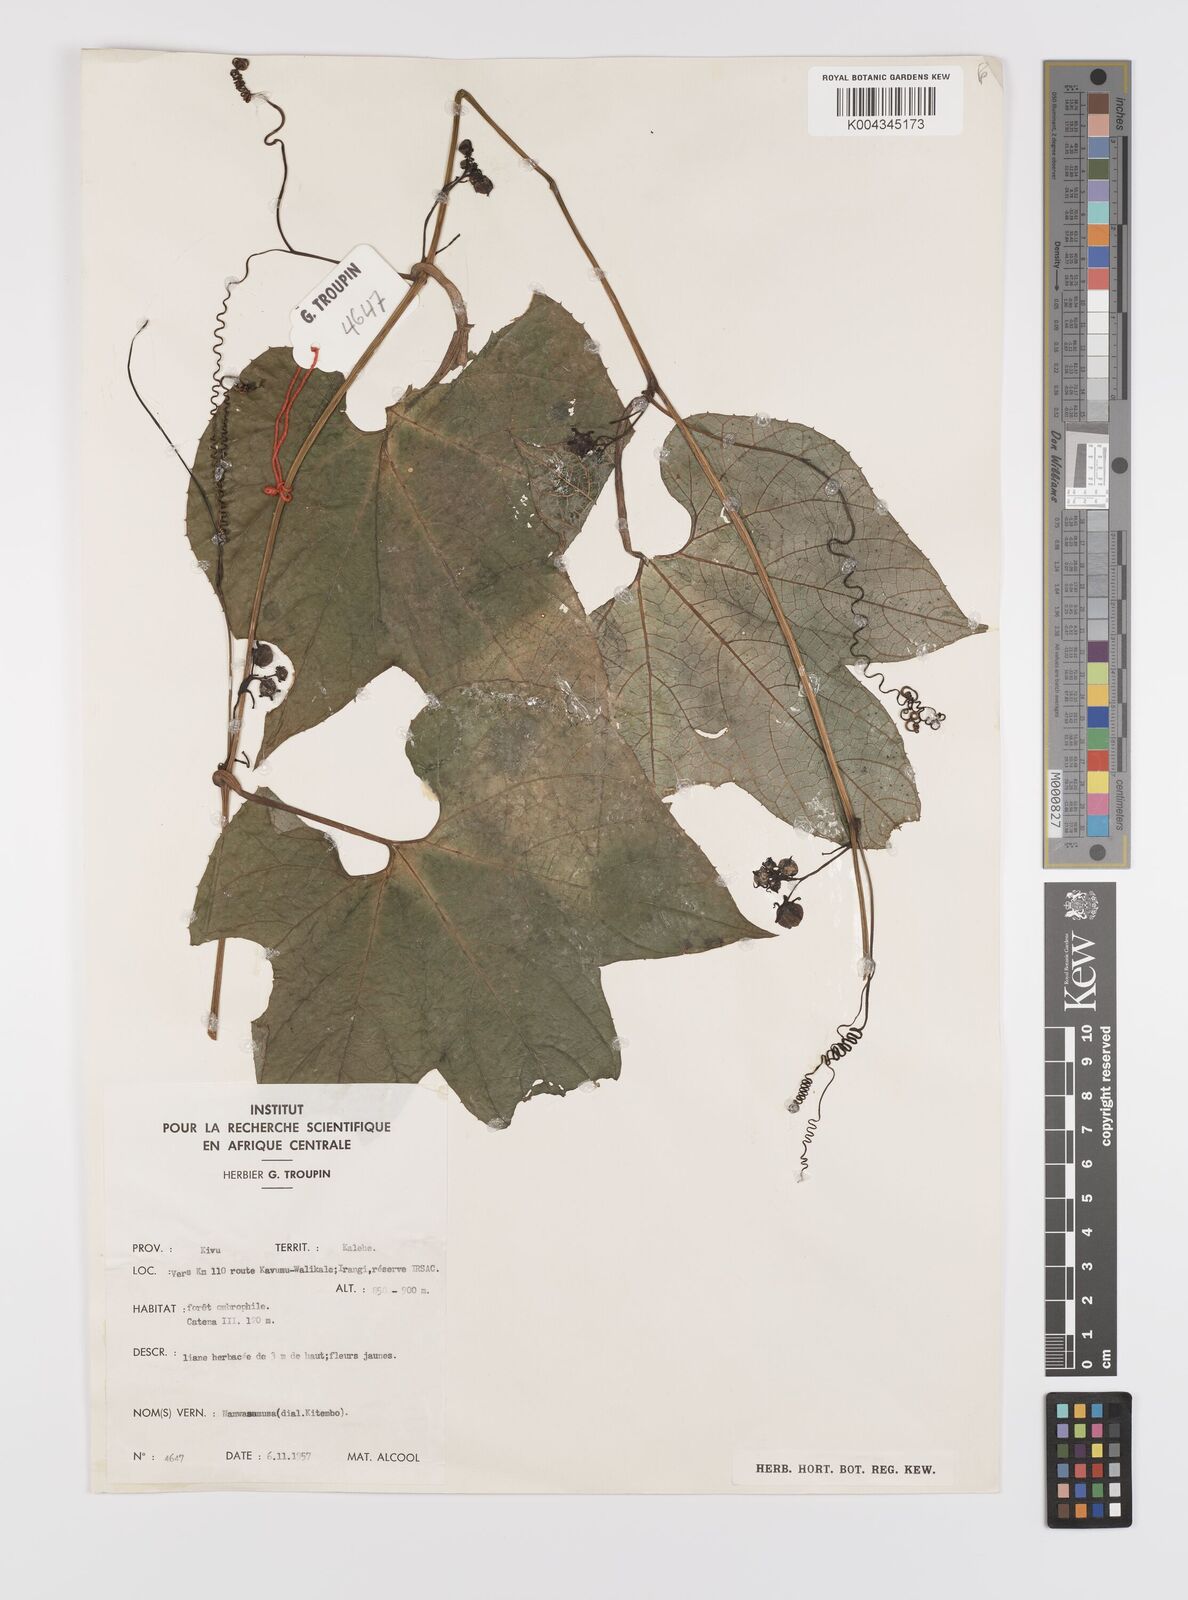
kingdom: Plantae
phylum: Tracheophyta
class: Magnoliopsida
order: Cucurbitales
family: Cucurbitaceae
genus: Bambekea
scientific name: Bambekea racemosa
